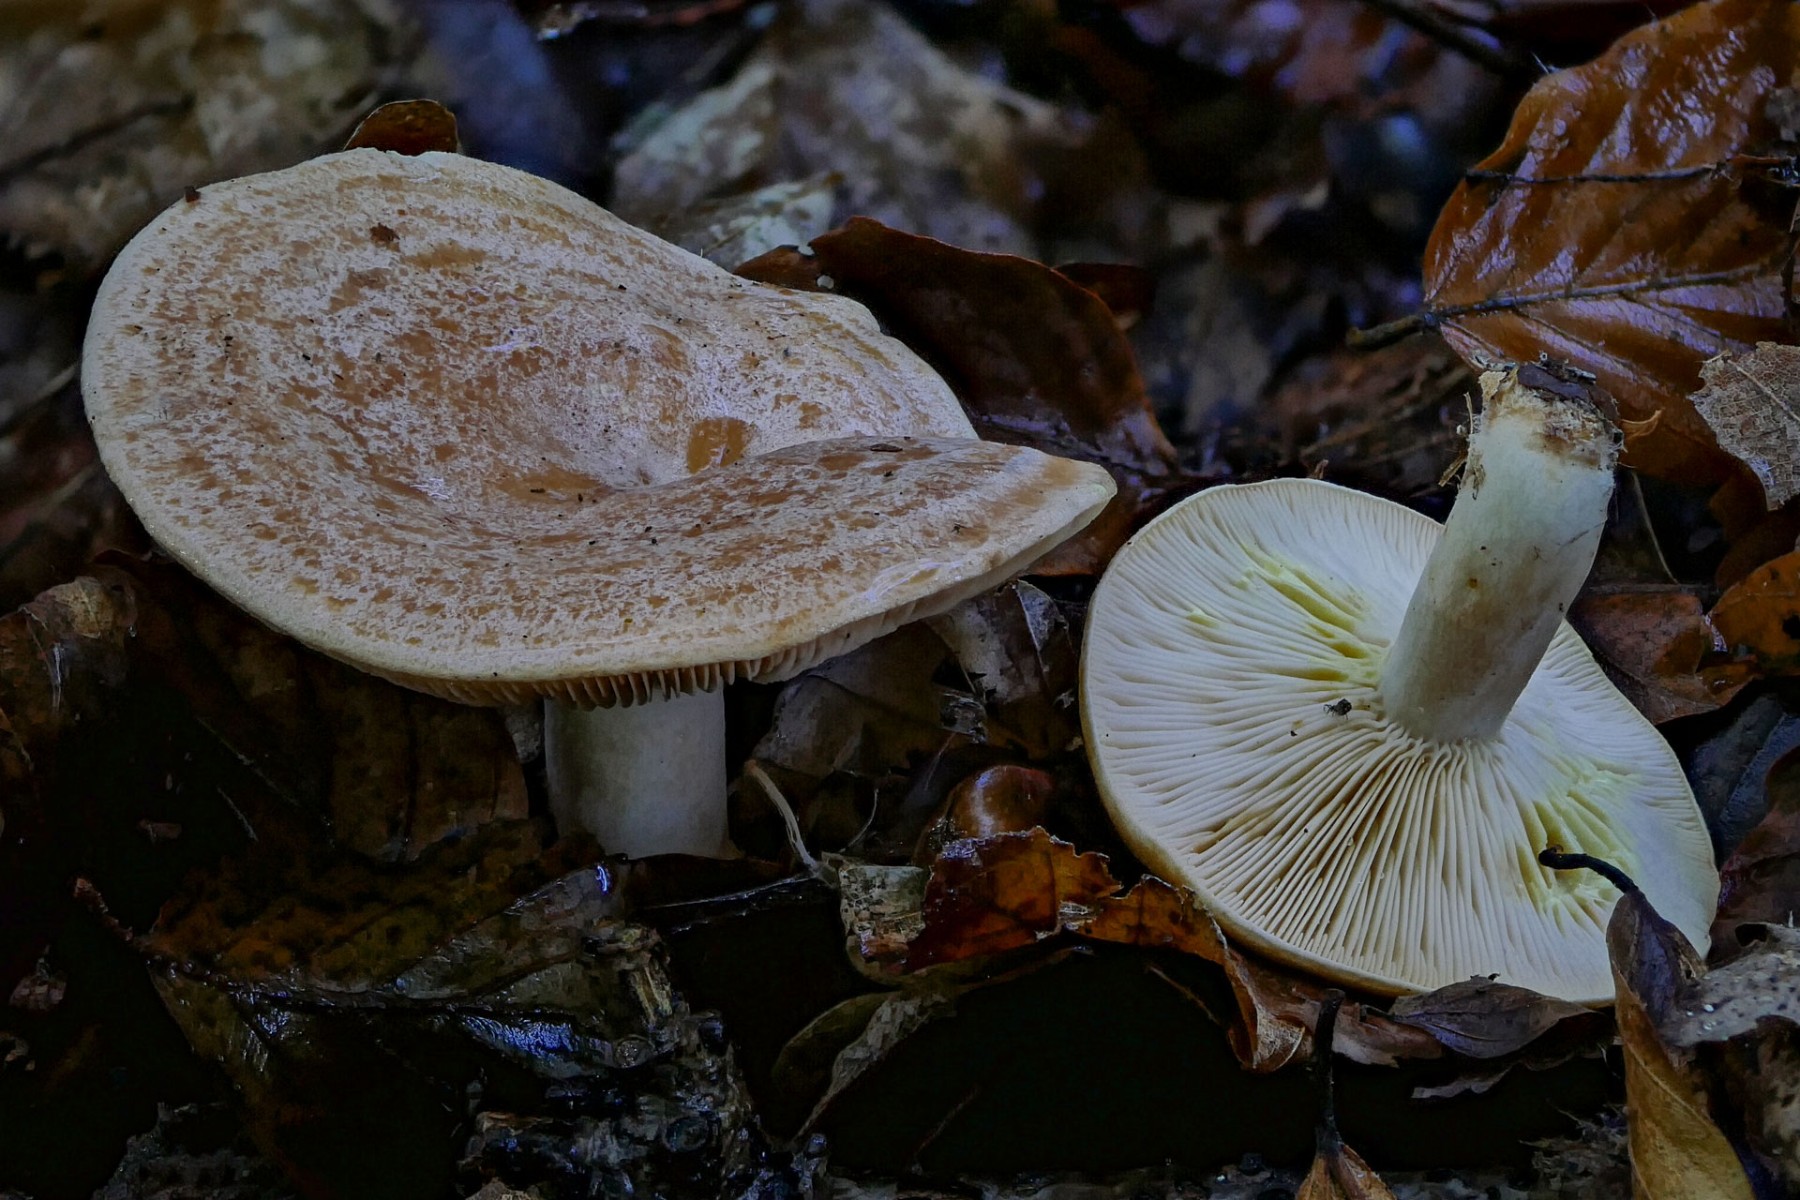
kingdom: Fungi
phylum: Basidiomycota
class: Agaricomycetes
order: Russulales
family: Russulaceae
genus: Lactarius
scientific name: Lactarius chrysorrheus
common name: svovlmælket mælkehat
